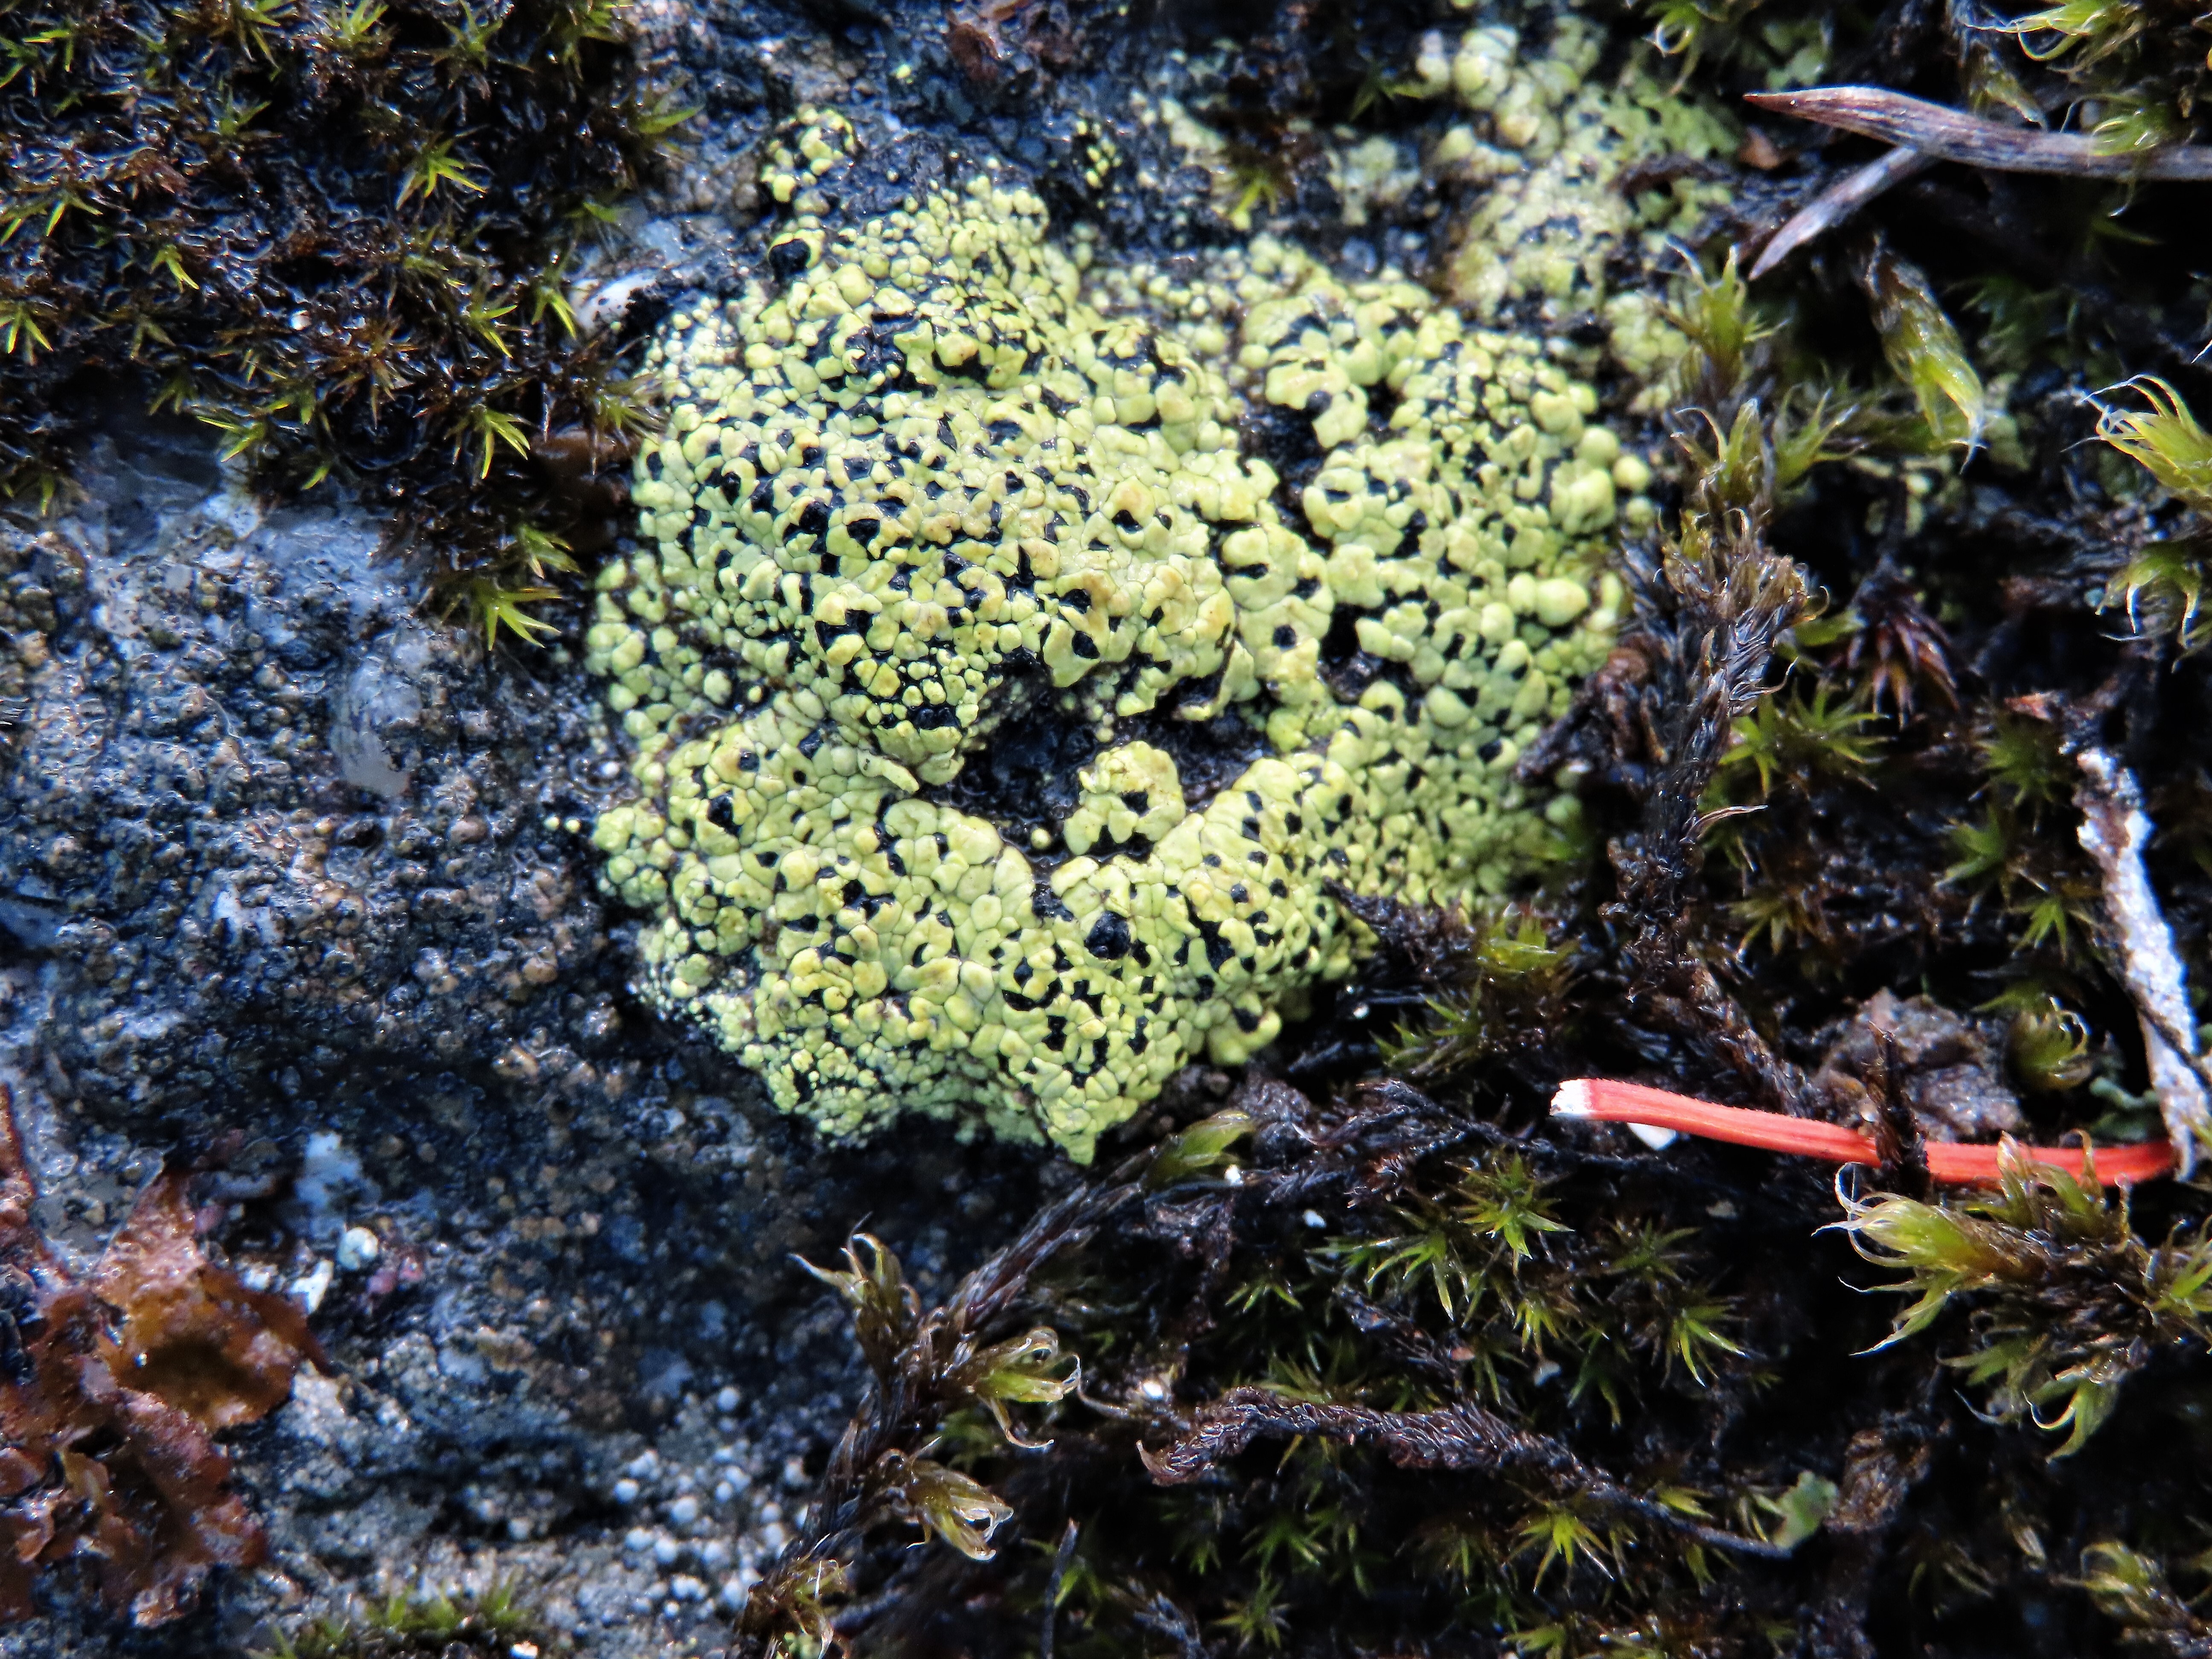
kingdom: Fungi
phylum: Ascomycota
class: Lecanoromycetes
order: Rhizocarpales
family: Rhizocarpaceae
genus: Rhizocarpon
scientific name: Rhizocarpon lecanorinum
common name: Crescent map lichen
